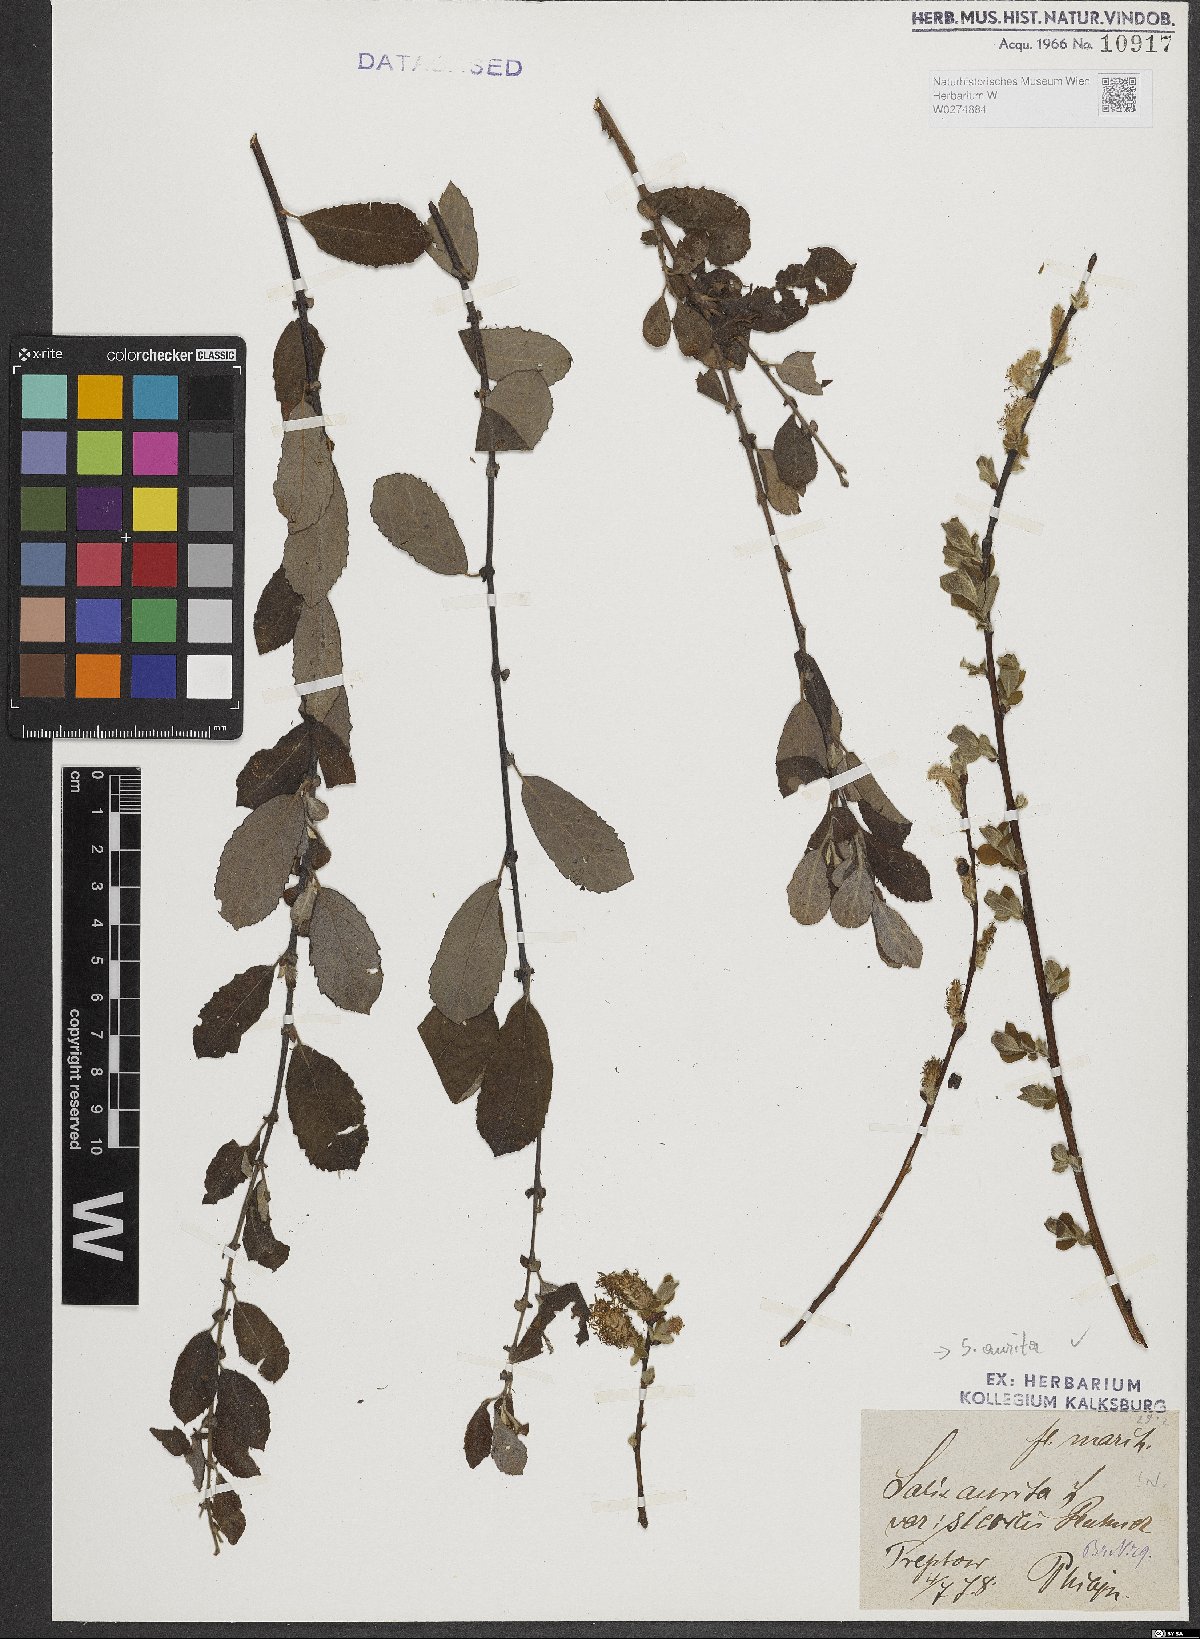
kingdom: Plantae
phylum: Tracheophyta
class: Magnoliopsida
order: Malpighiales
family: Salicaceae
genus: Salix
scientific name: Salix aurita
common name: Eared willow
